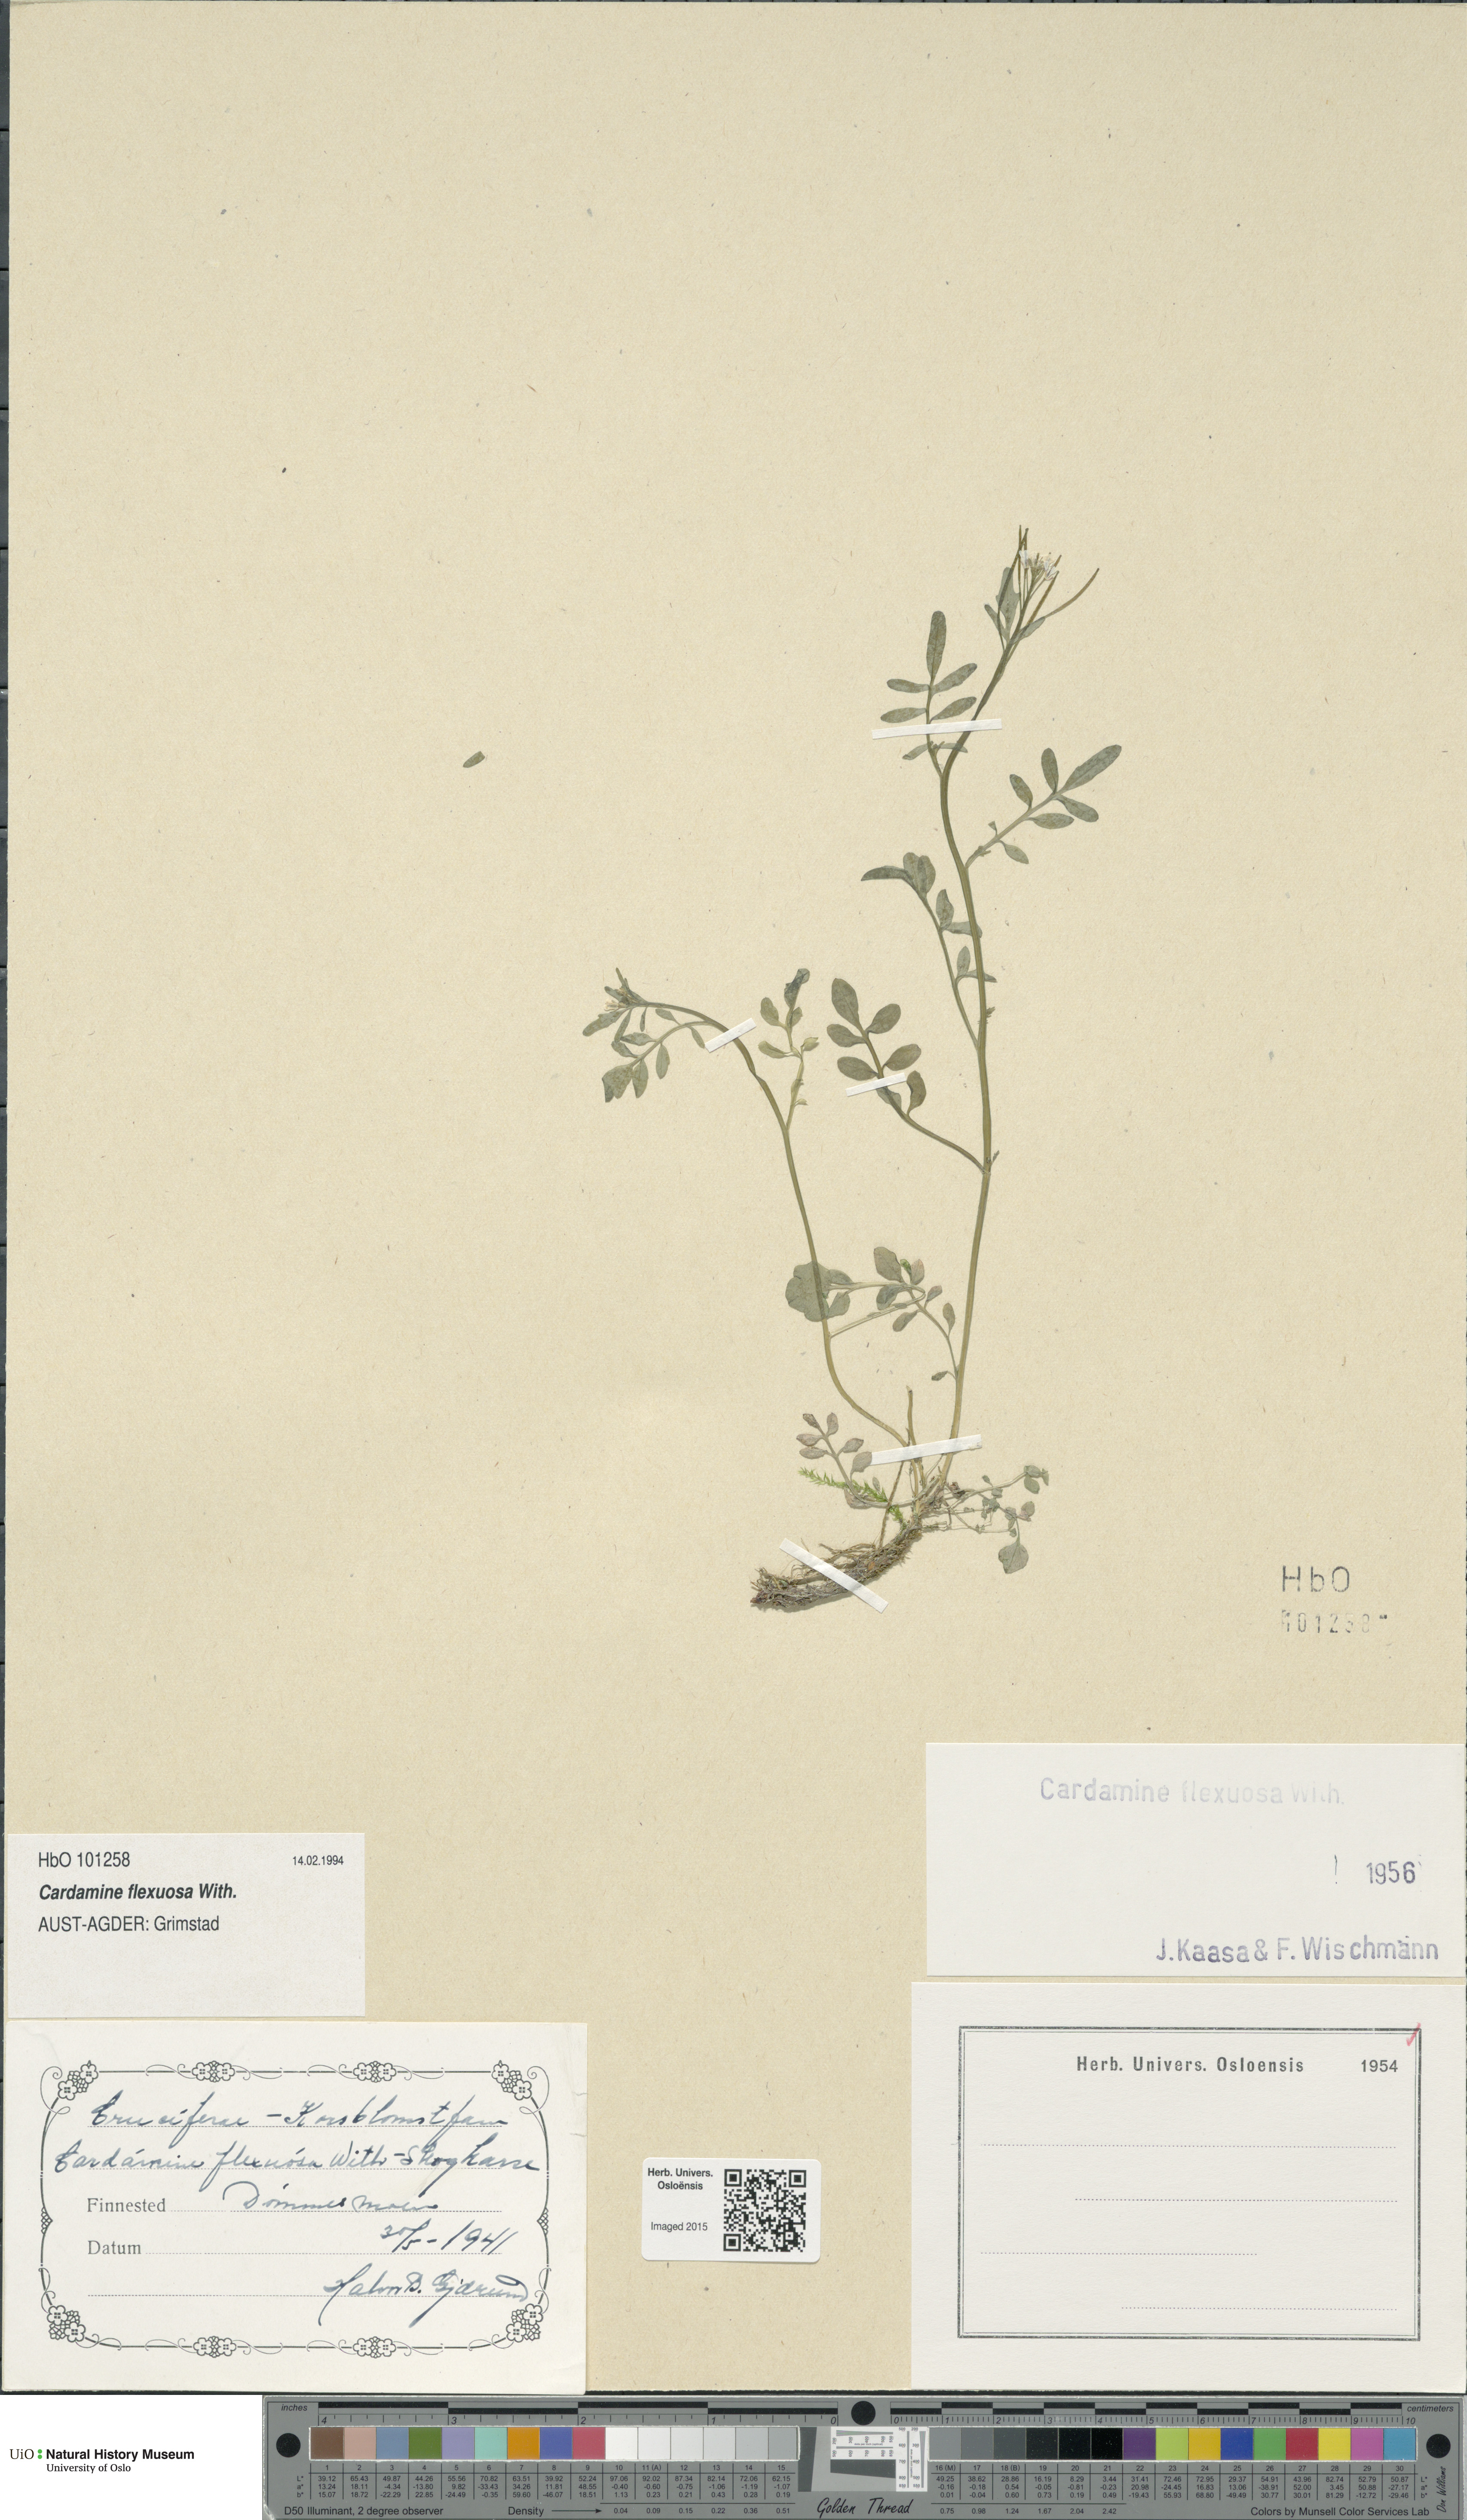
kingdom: Plantae
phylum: Tracheophyta
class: Magnoliopsida
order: Brassicales
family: Brassicaceae
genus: Cardamine
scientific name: Cardamine flexuosa
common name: Woodland bittercress
